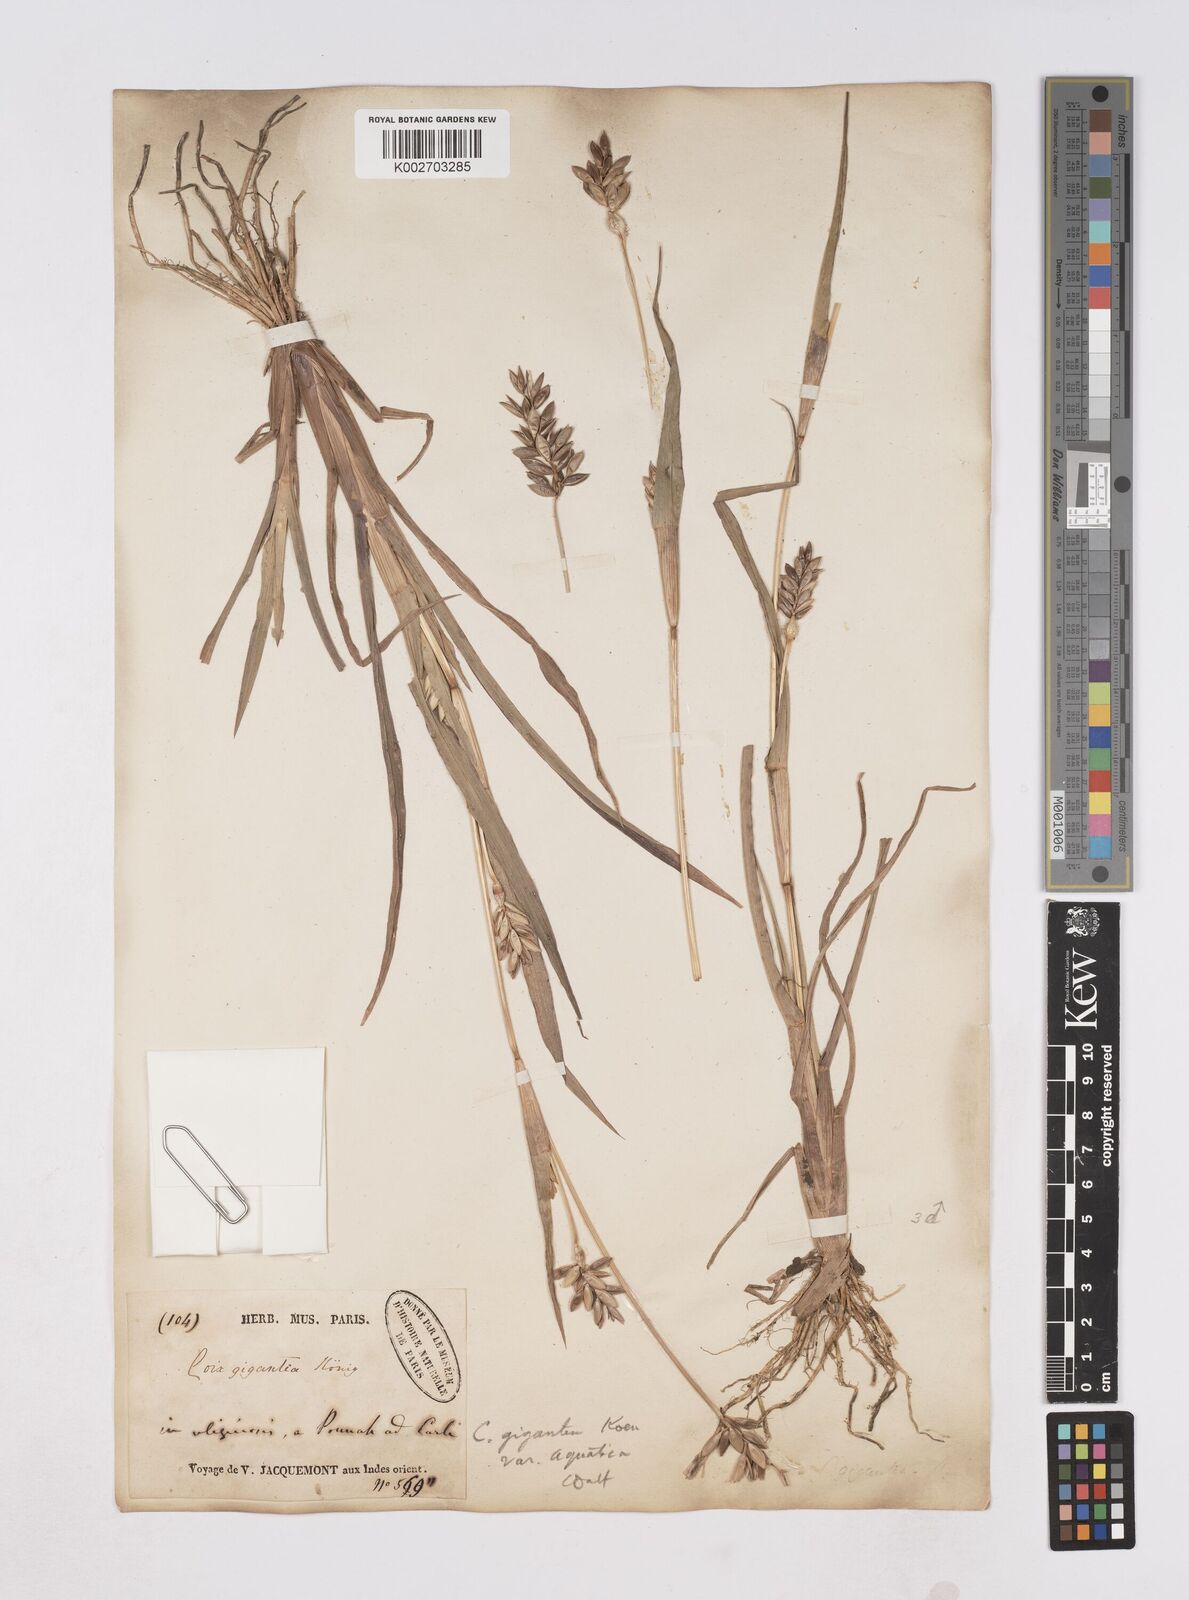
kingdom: Plantae
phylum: Tracheophyta
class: Liliopsida
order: Poales
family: Poaceae
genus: Coix
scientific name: Coix aquatica
